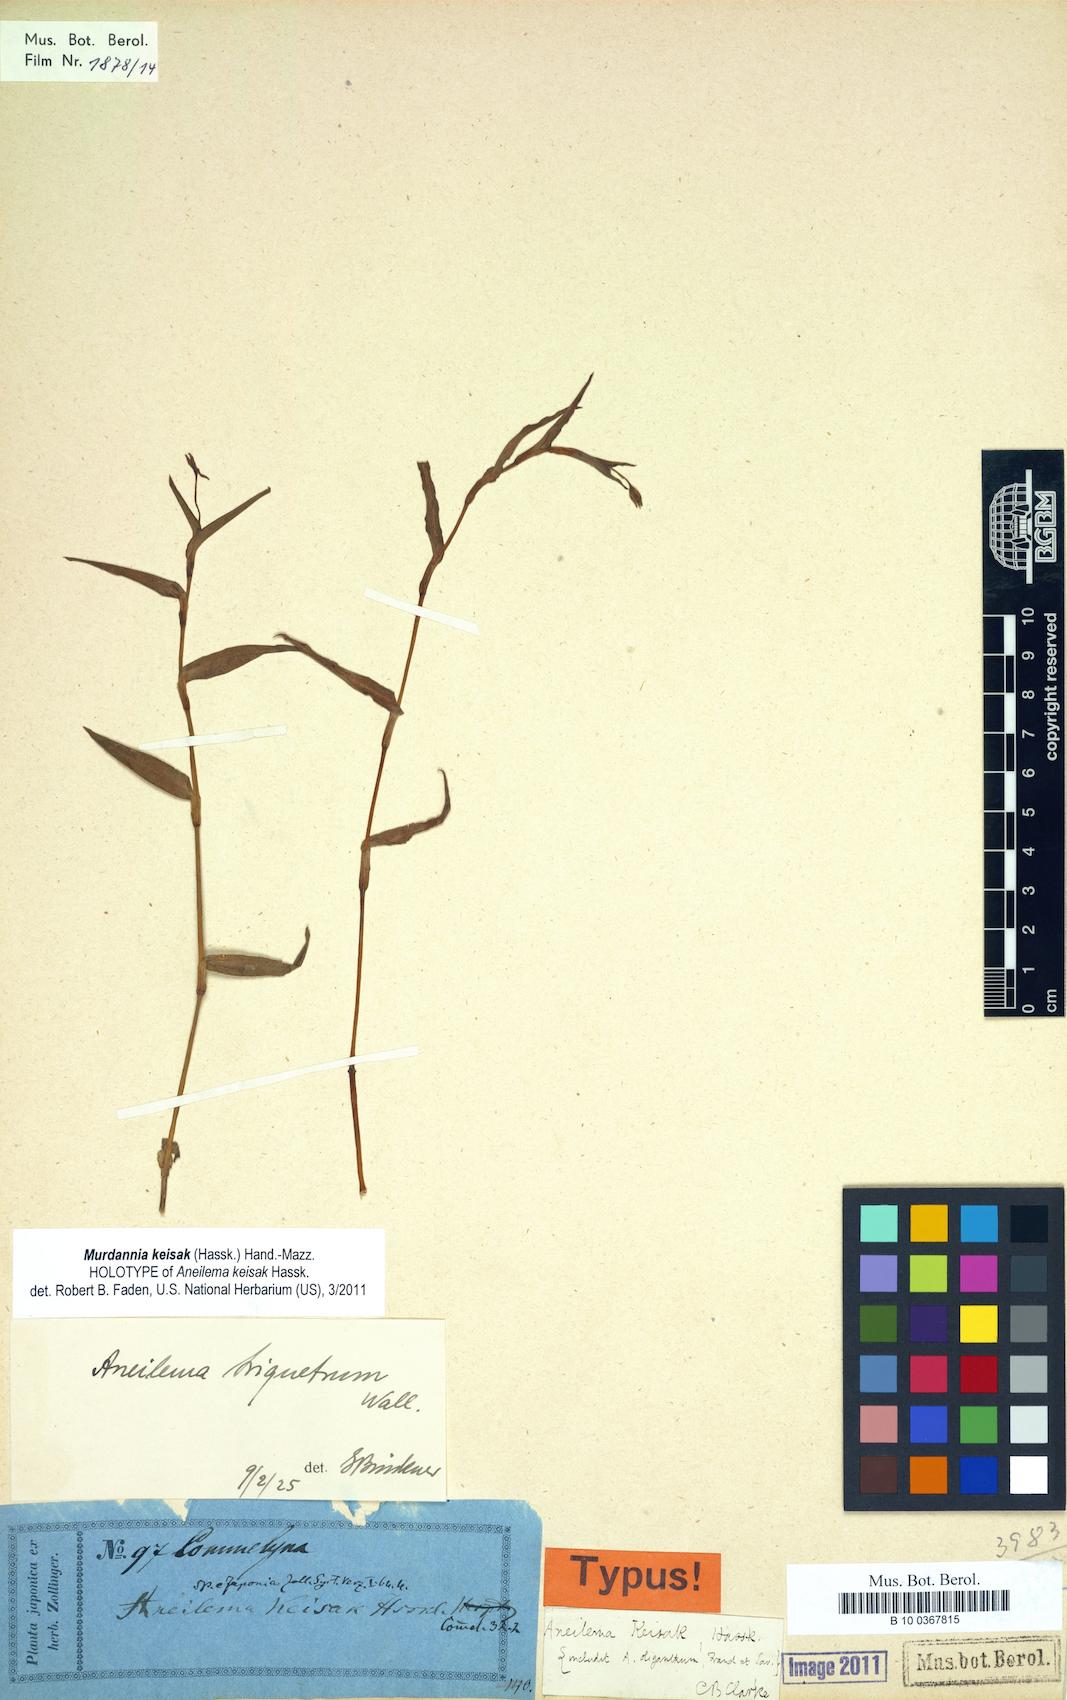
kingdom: Plantae
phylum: Tracheophyta
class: Liliopsida
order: Commelinales
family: Commelinaceae
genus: Aneilema
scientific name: Aneilema triquetrum
